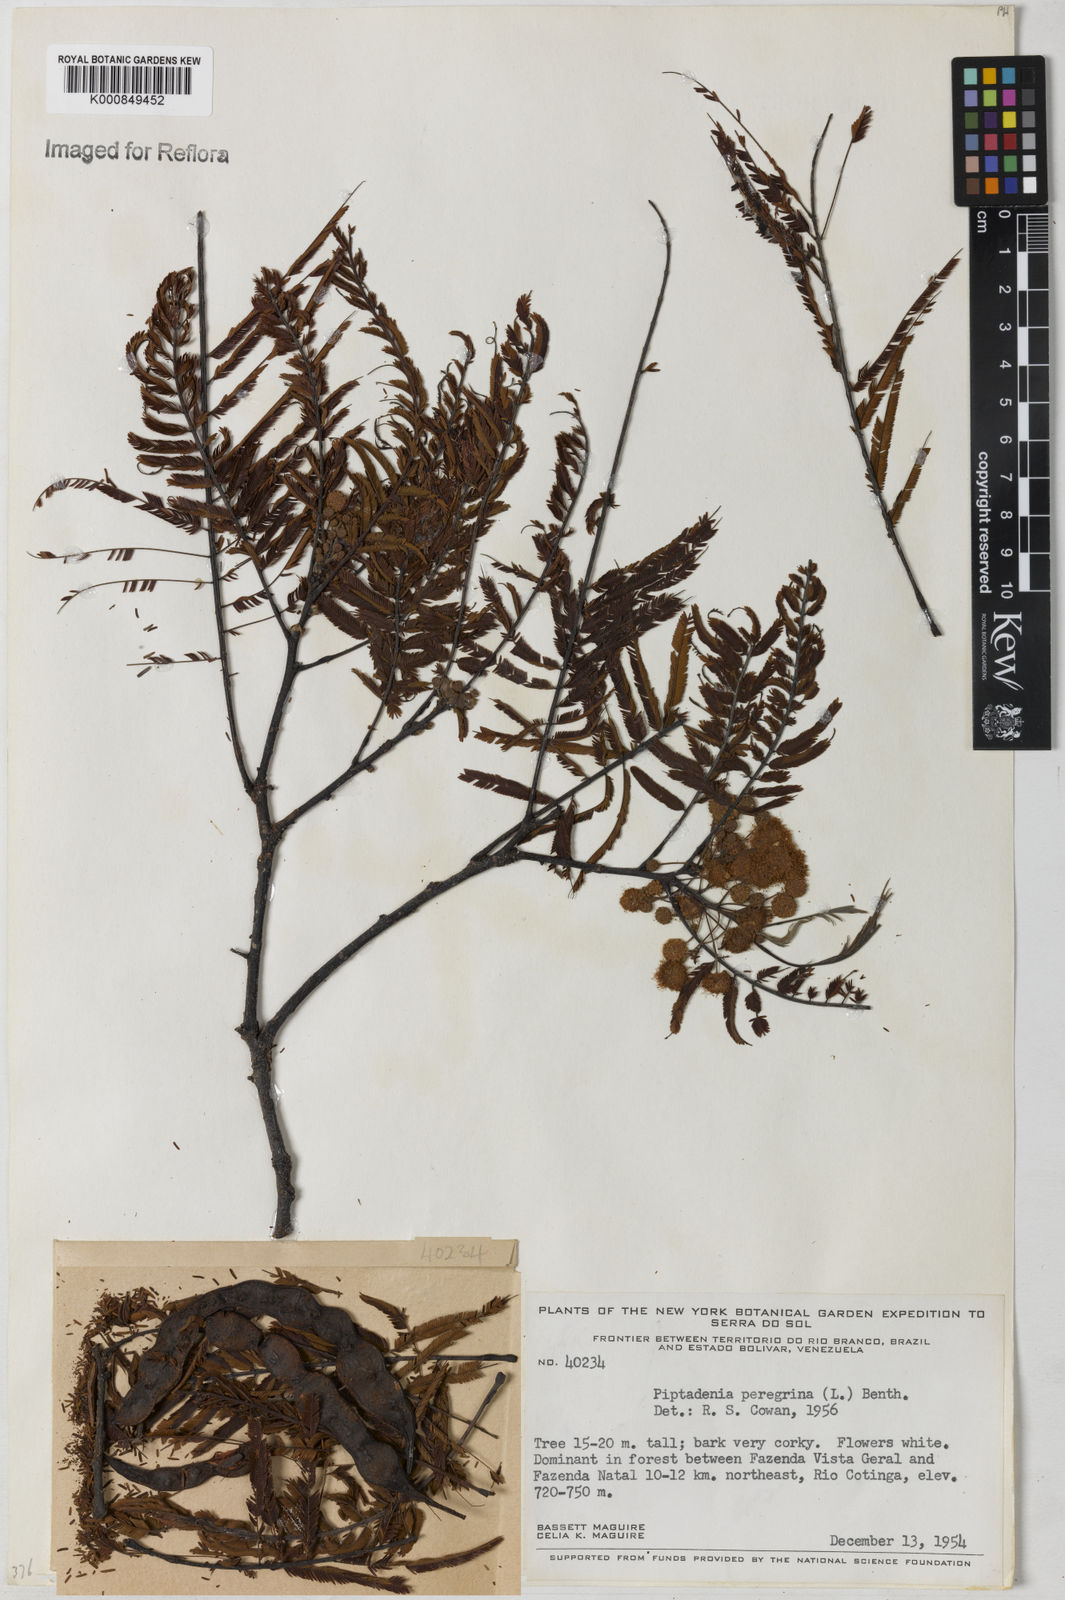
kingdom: Plantae
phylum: Tracheophyta
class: Magnoliopsida
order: Fabales
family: Fabaceae
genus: Anadenanthera
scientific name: Anadenanthera peregrina
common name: Cohoba
